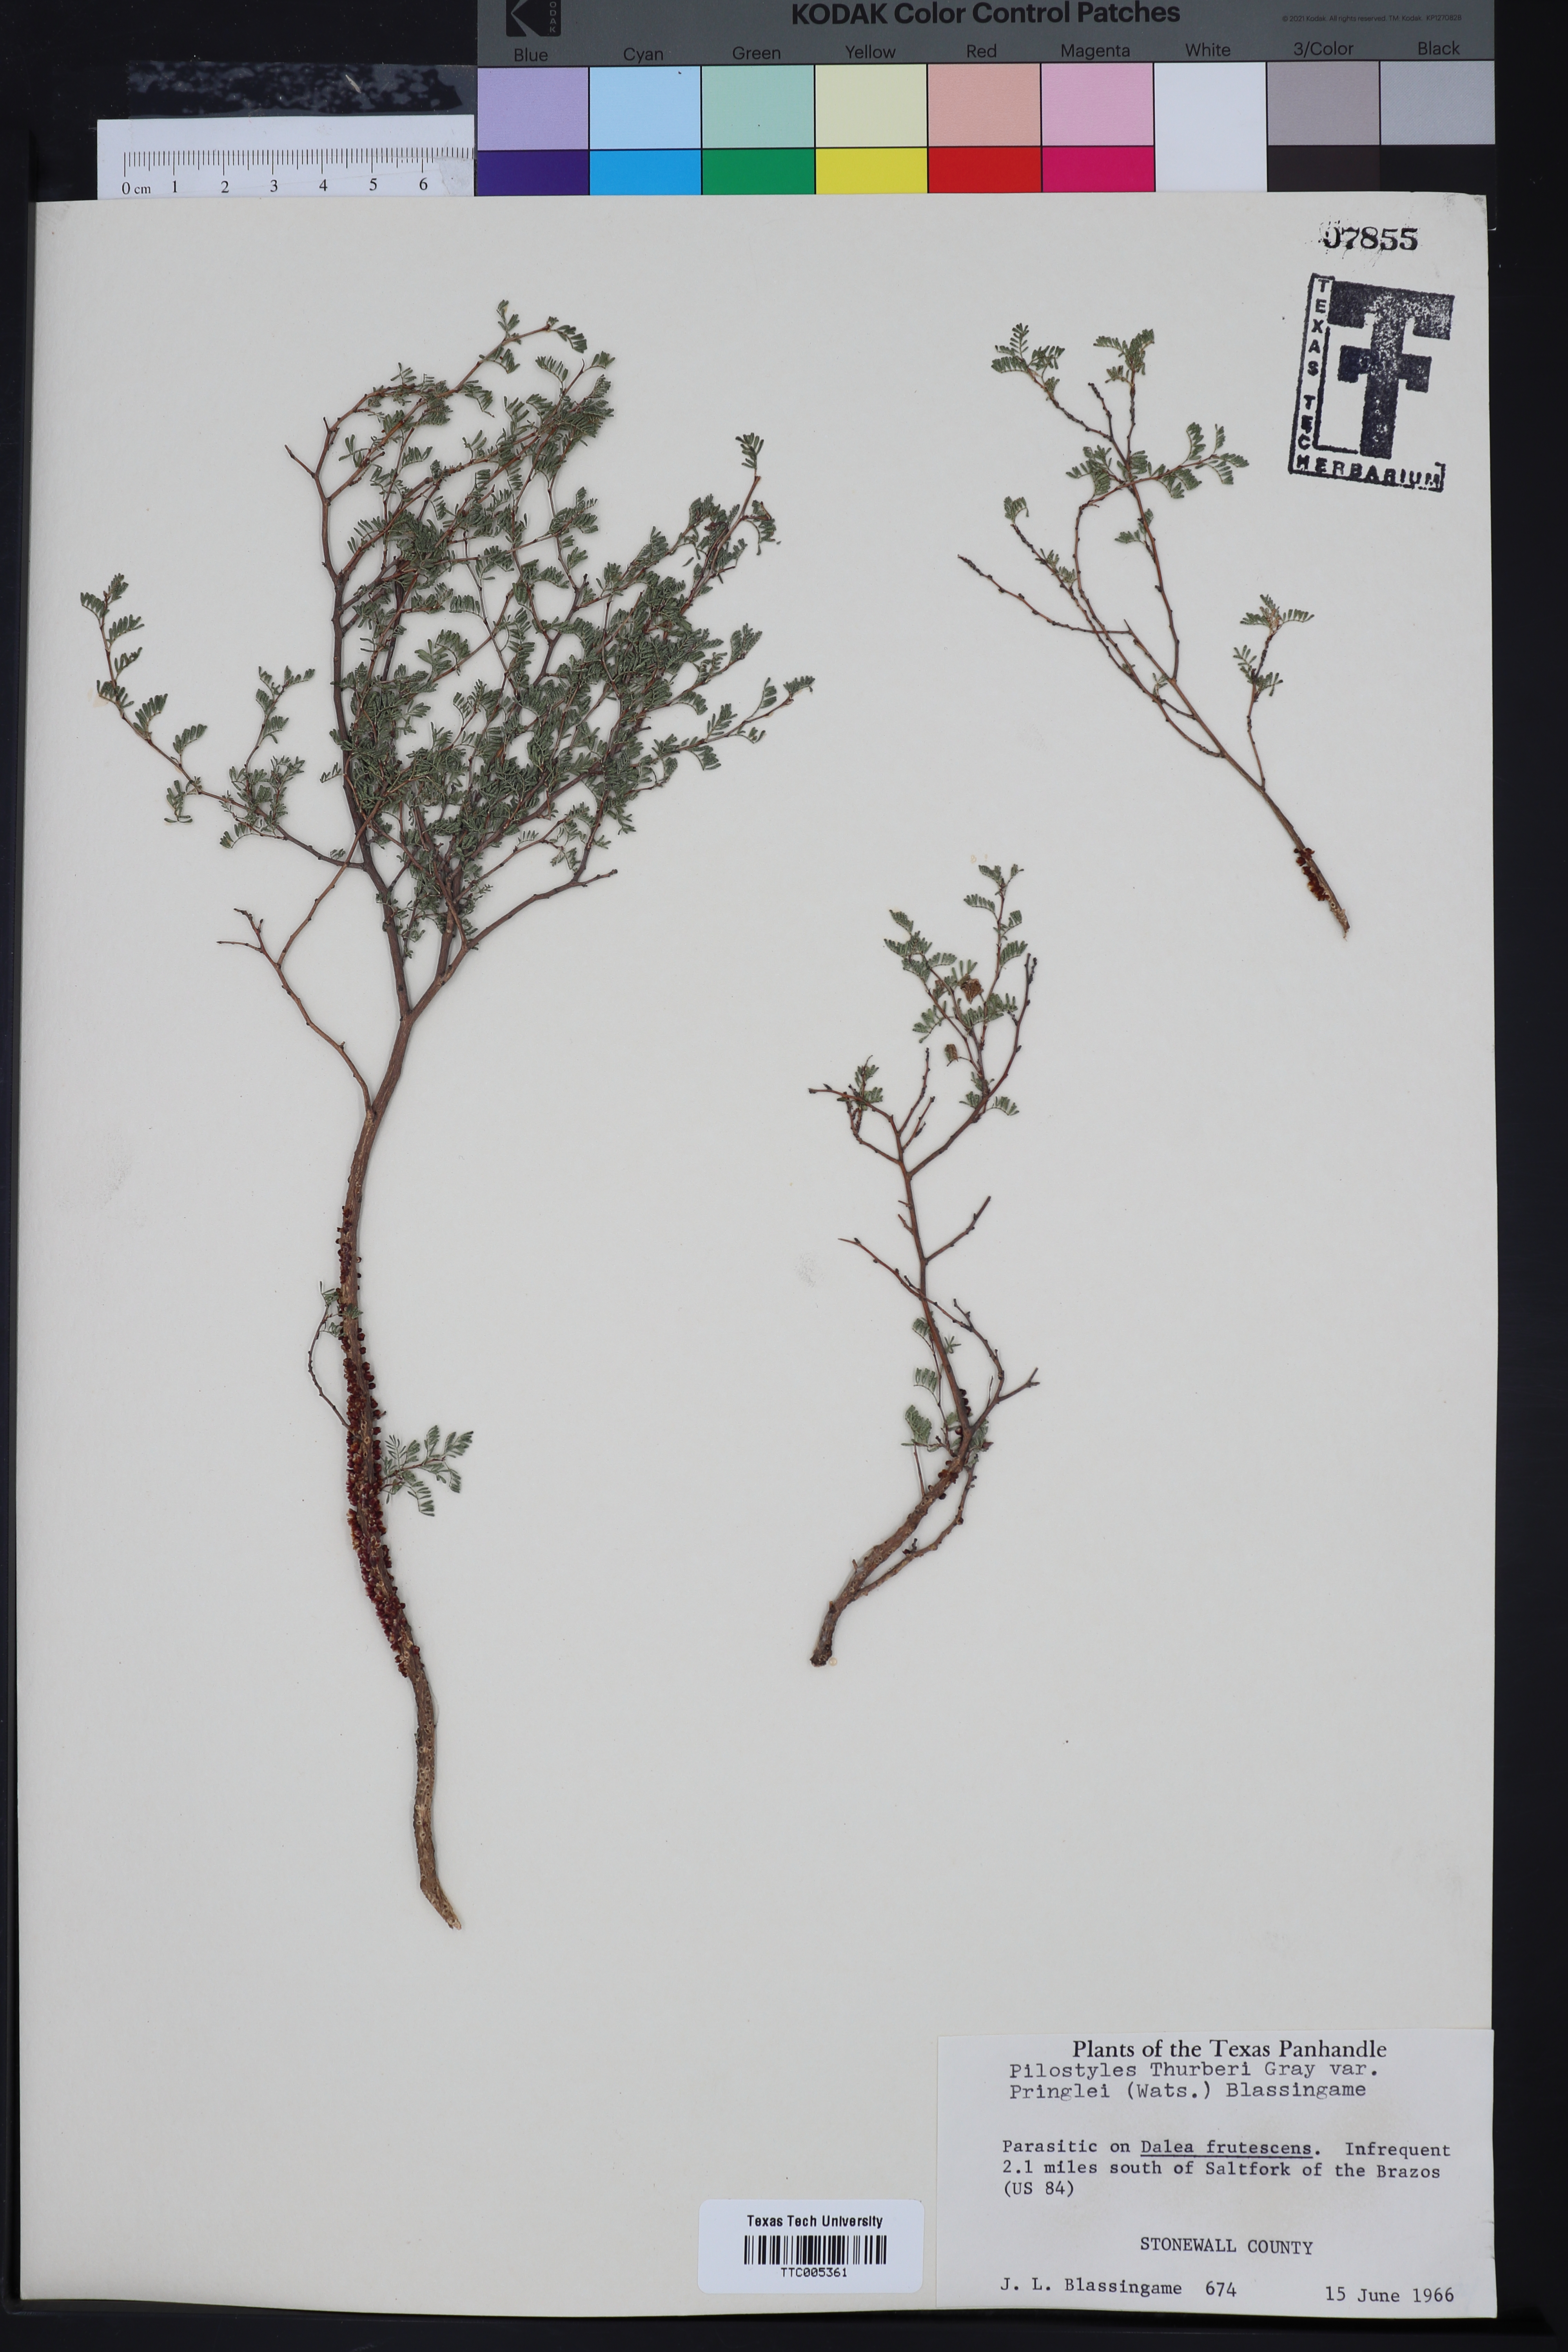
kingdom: Plantae
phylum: Tracheophyta
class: Magnoliopsida
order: Cucurbitales
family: Apodanthaceae
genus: Pilostyles
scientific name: Pilostyles thurberi
